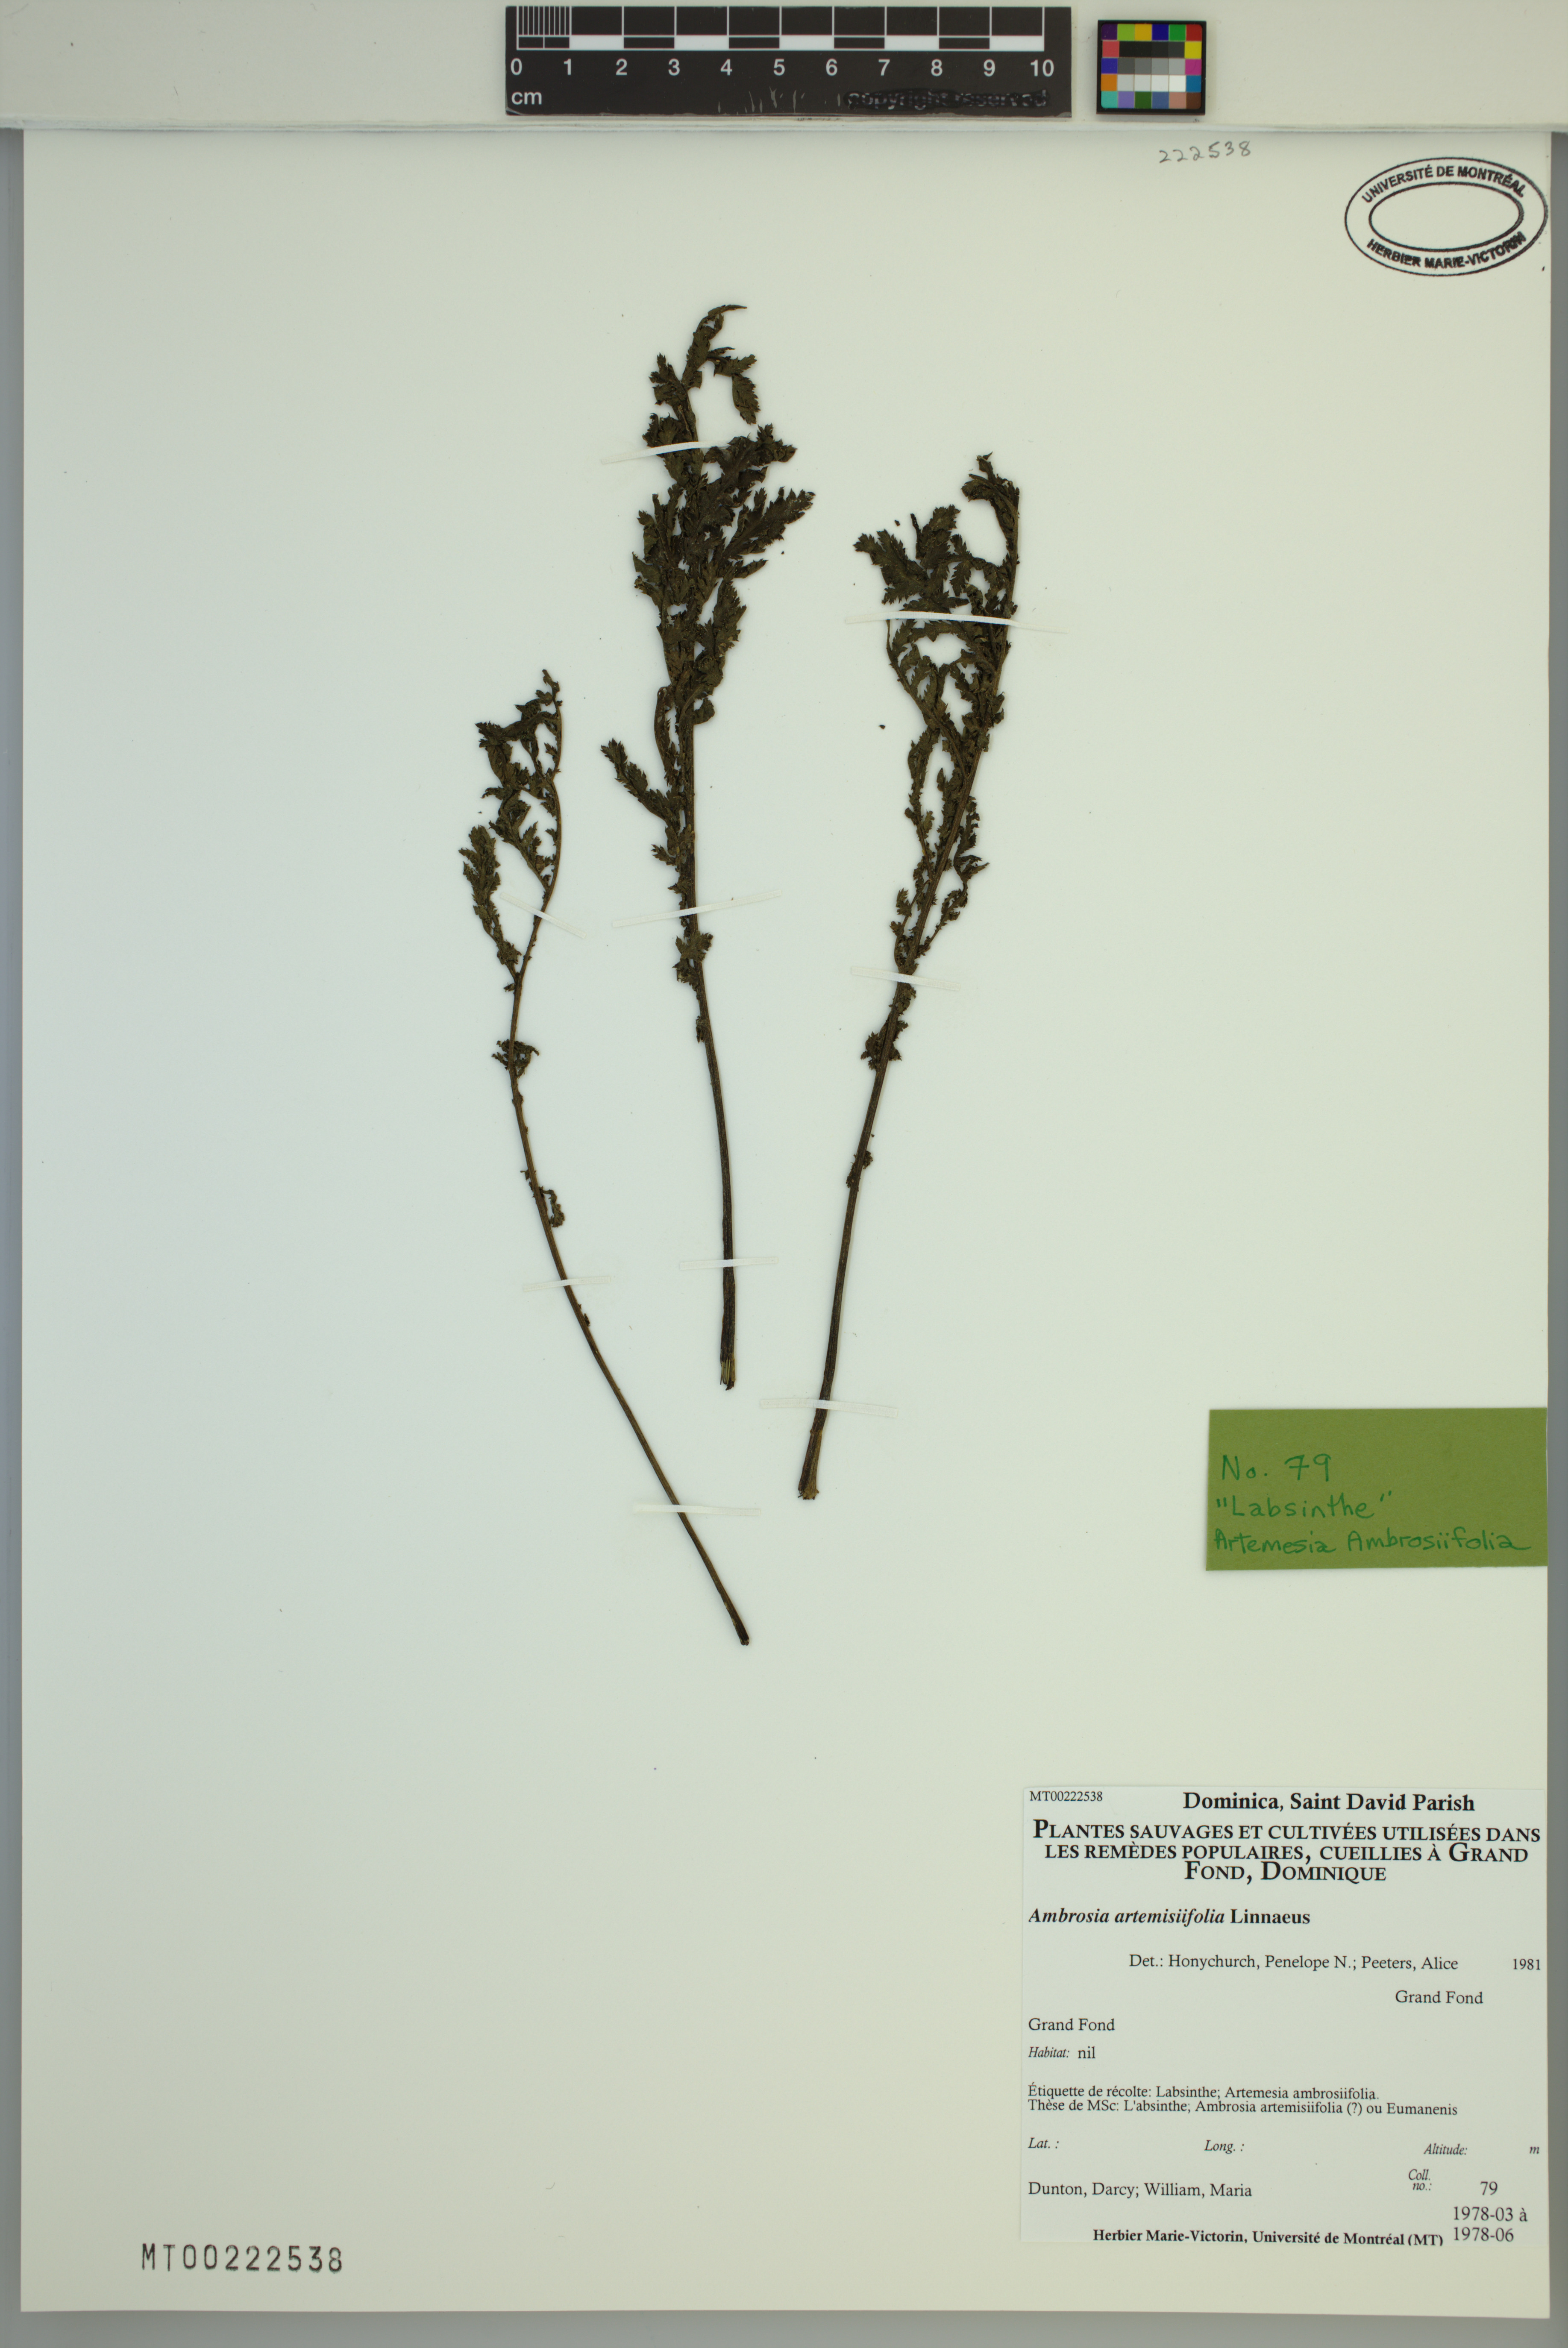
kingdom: Plantae
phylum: Tracheophyta
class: Magnoliopsida
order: Asterales
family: Asteraceae
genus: Ambrosia
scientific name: Ambrosia artemisiifolia
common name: Annual ragweed
